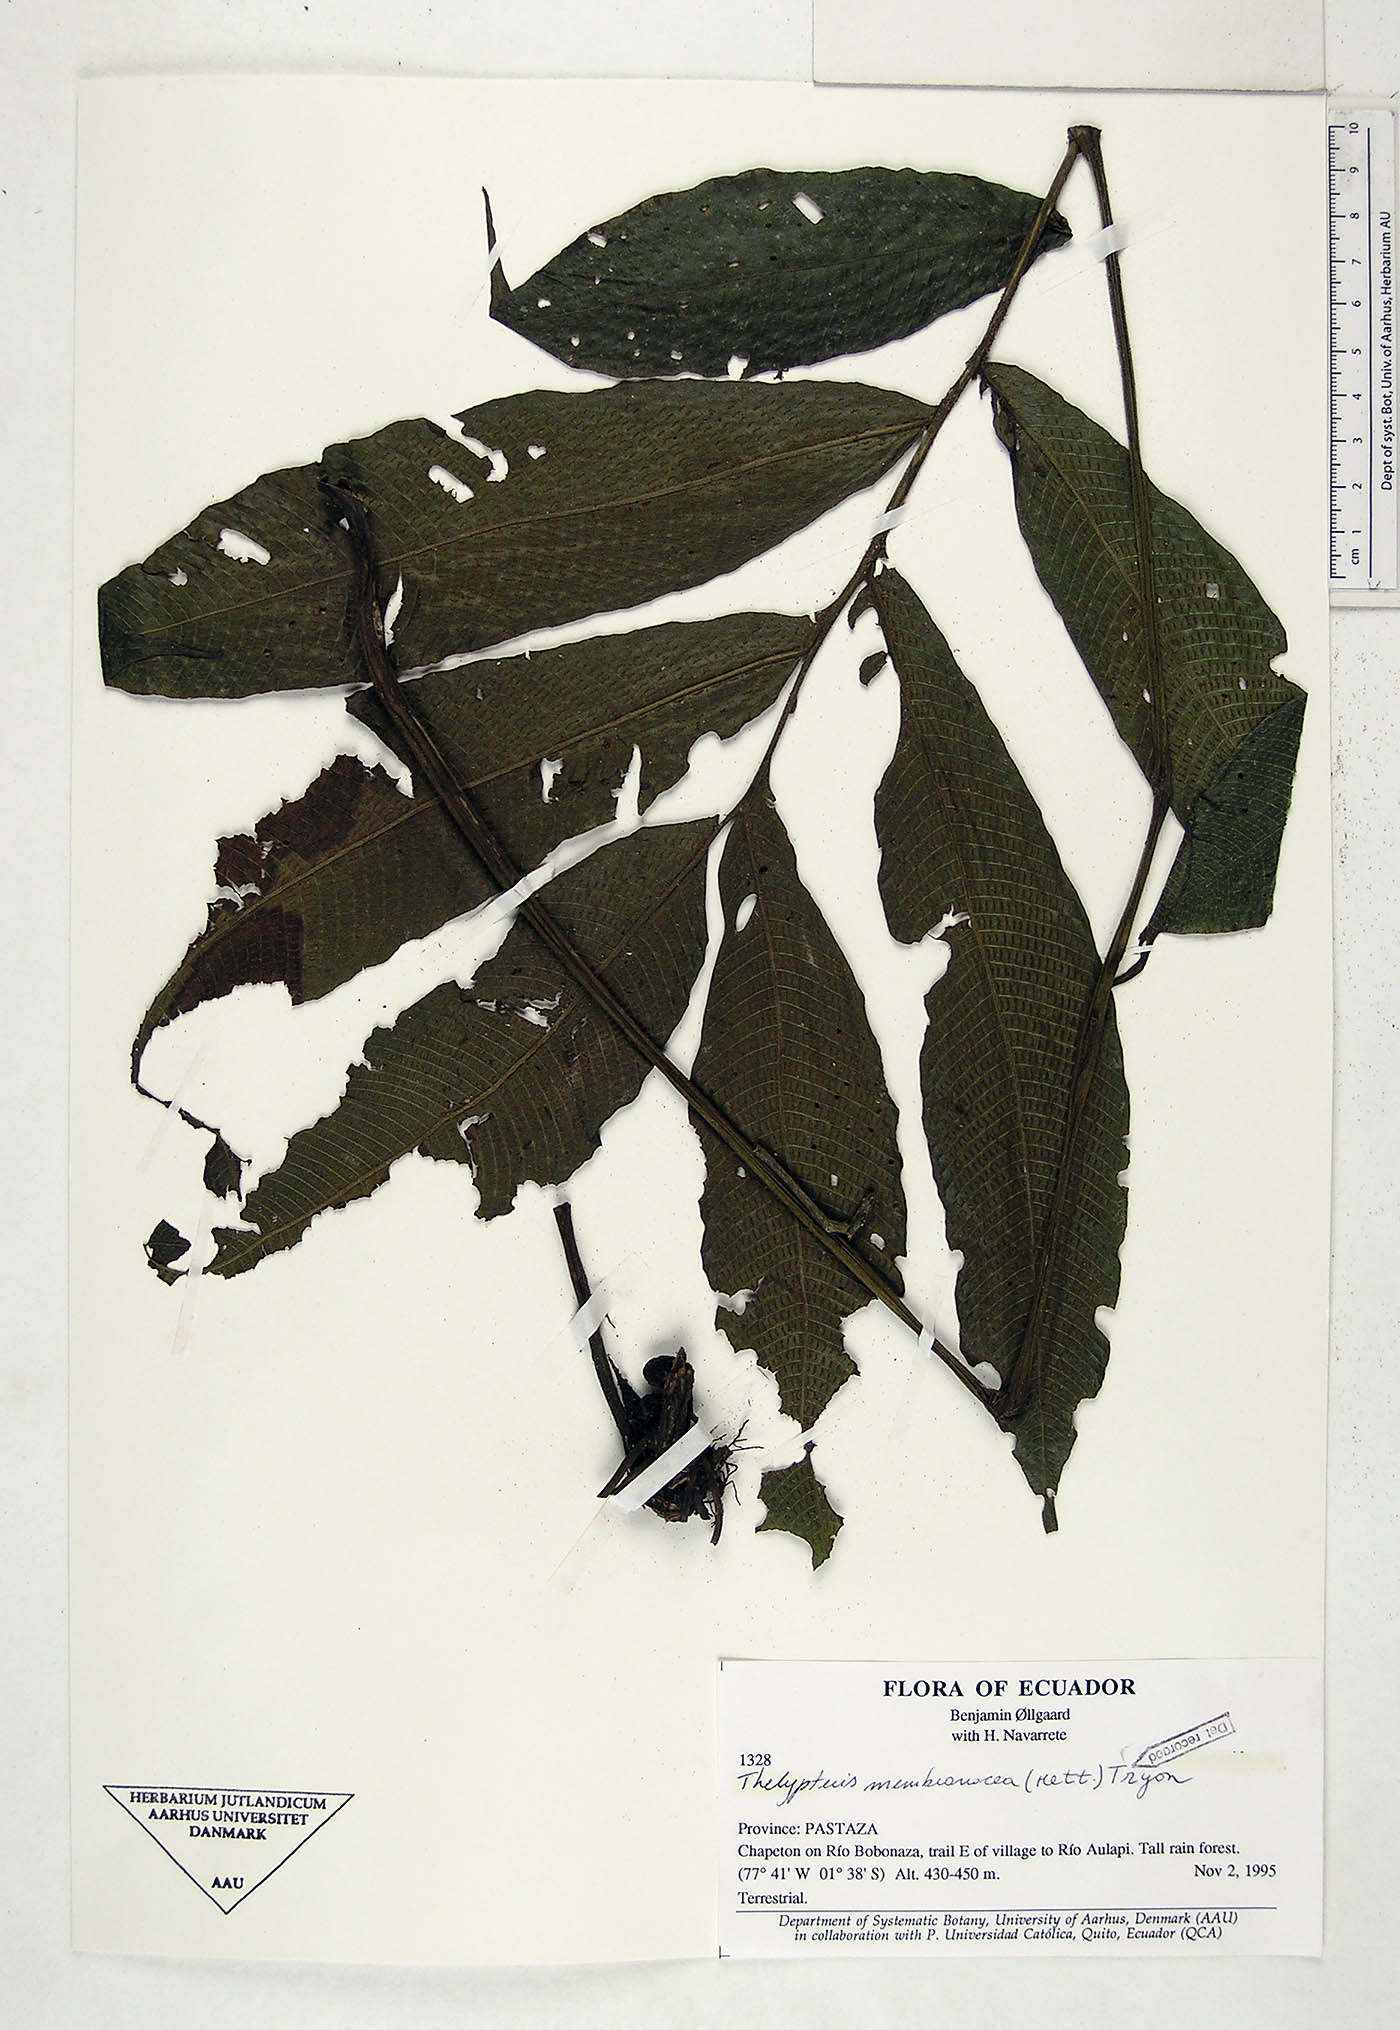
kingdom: Plantae
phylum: Tracheophyta
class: Polypodiopsida
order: Polypodiales
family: Thelypteridaceae
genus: Meniscium
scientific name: Meniscium membranaceum
